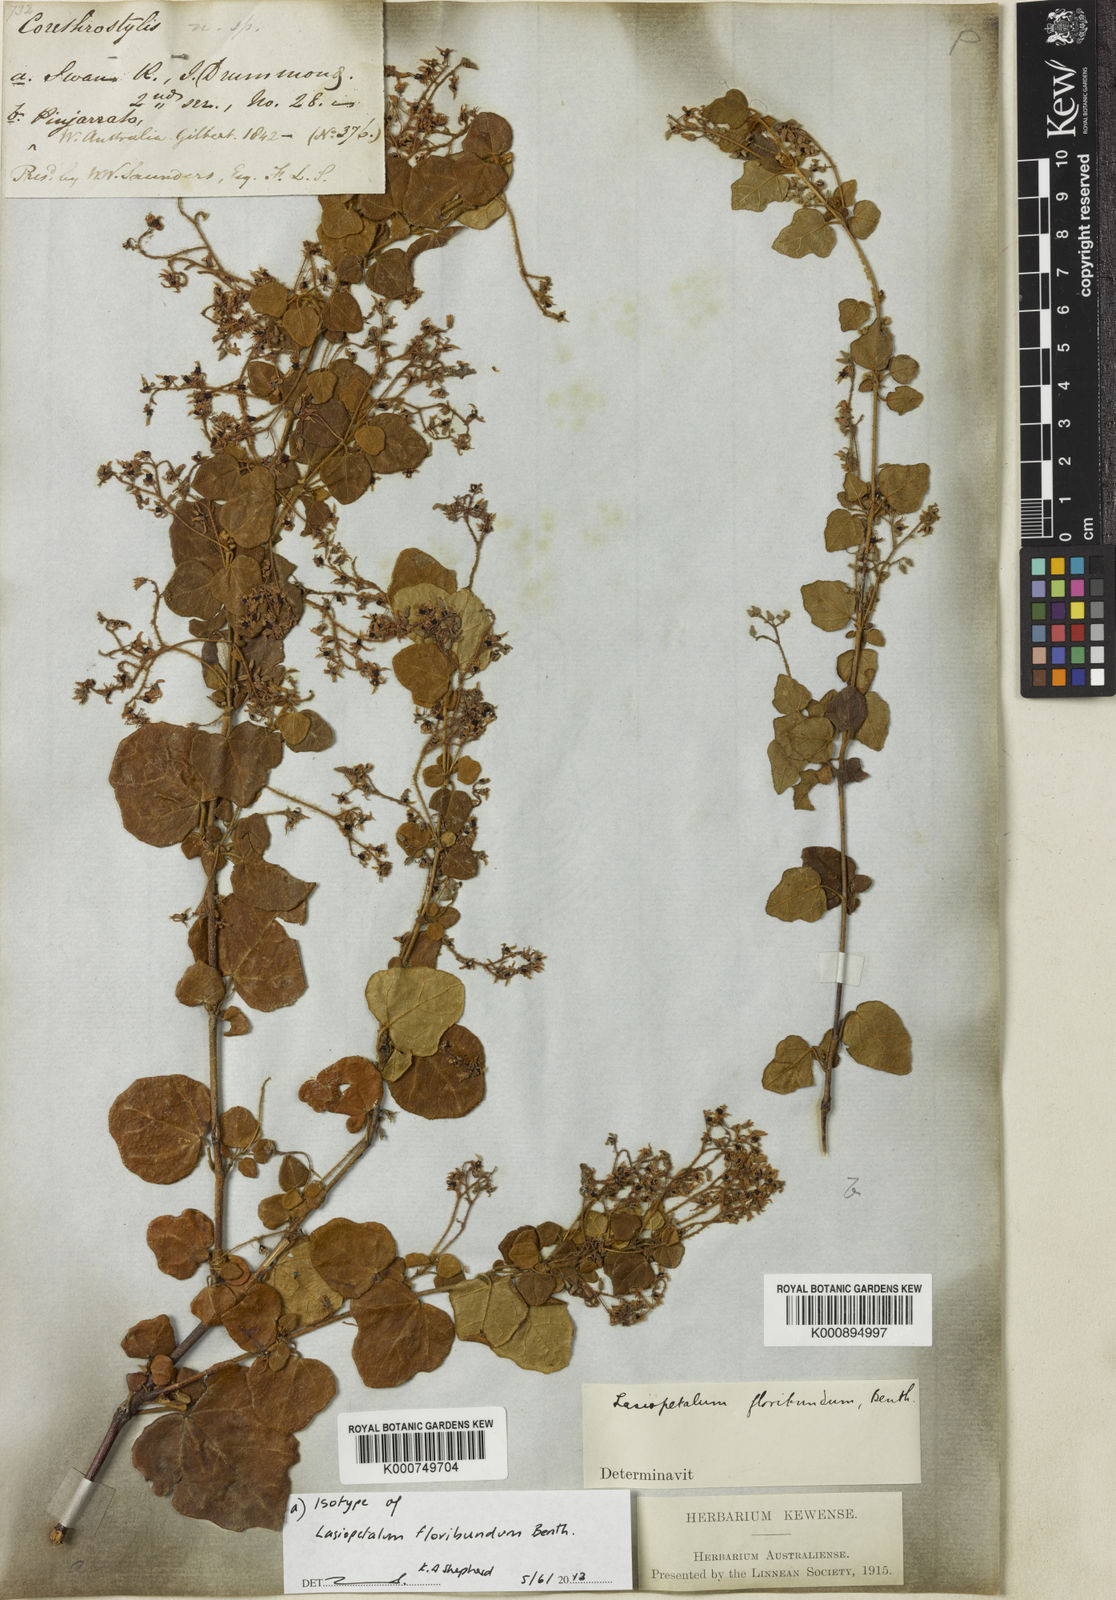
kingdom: Plantae
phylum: Tracheophyta
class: Magnoliopsida
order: Malvales
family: Malvaceae
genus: Lasiopetalum
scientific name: Lasiopetalum floribundum
